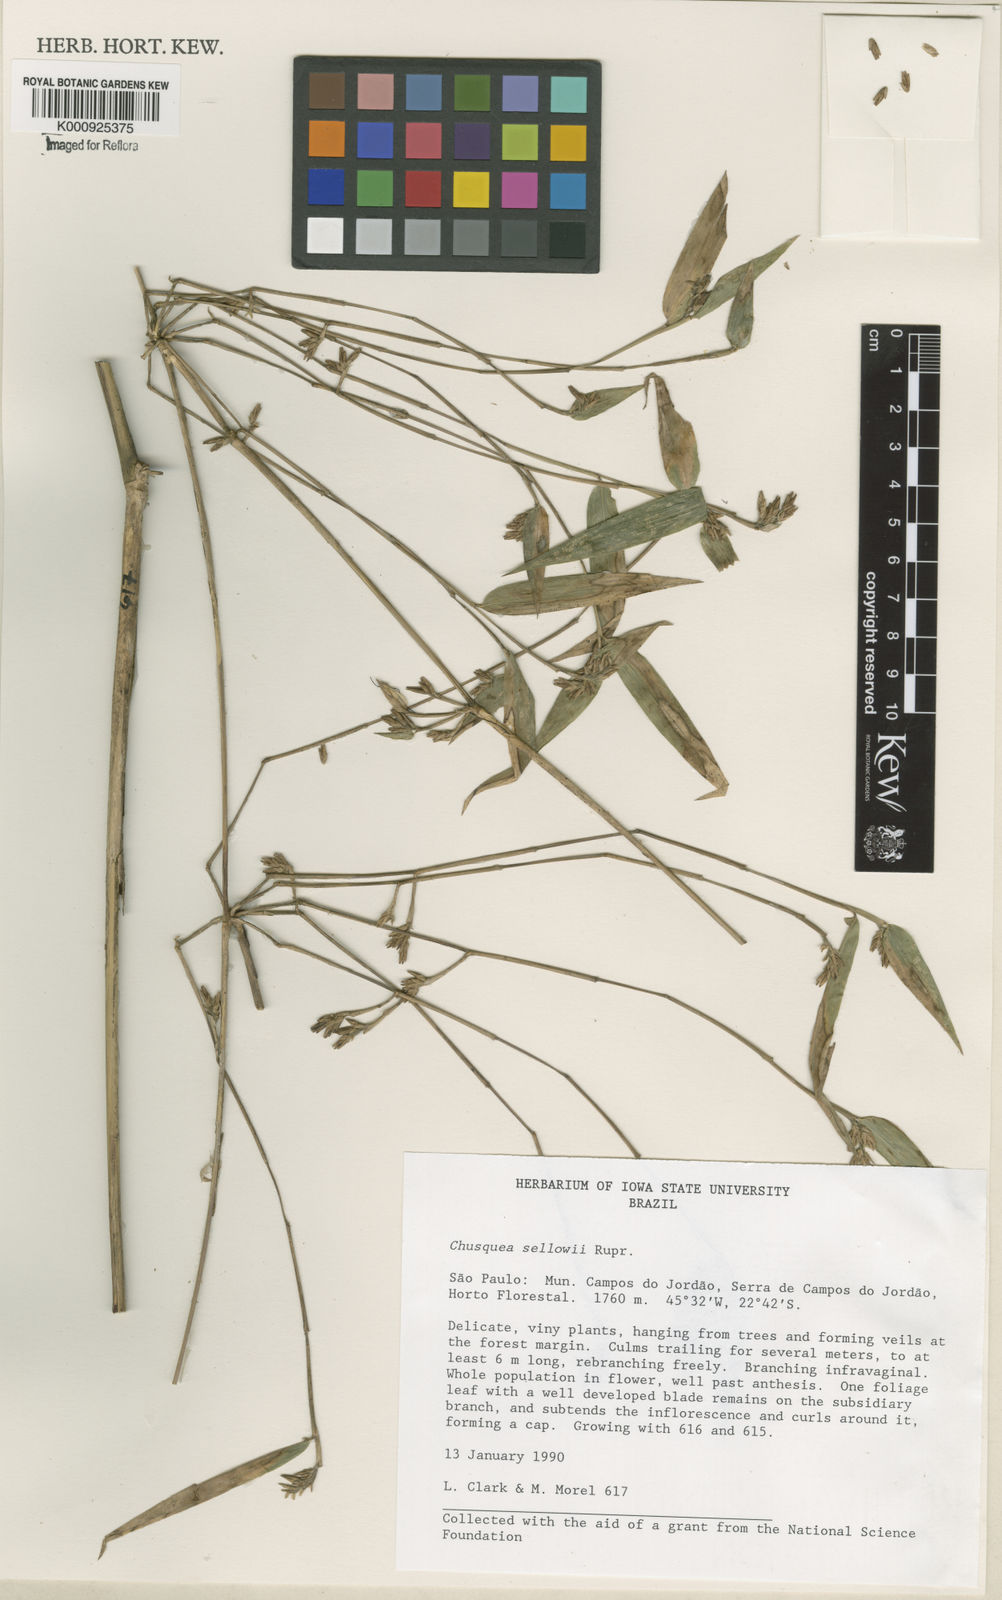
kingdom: Plantae
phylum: Tracheophyta
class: Liliopsida
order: Poales
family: Poaceae
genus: Chusquea
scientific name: Chusquea sellowii
